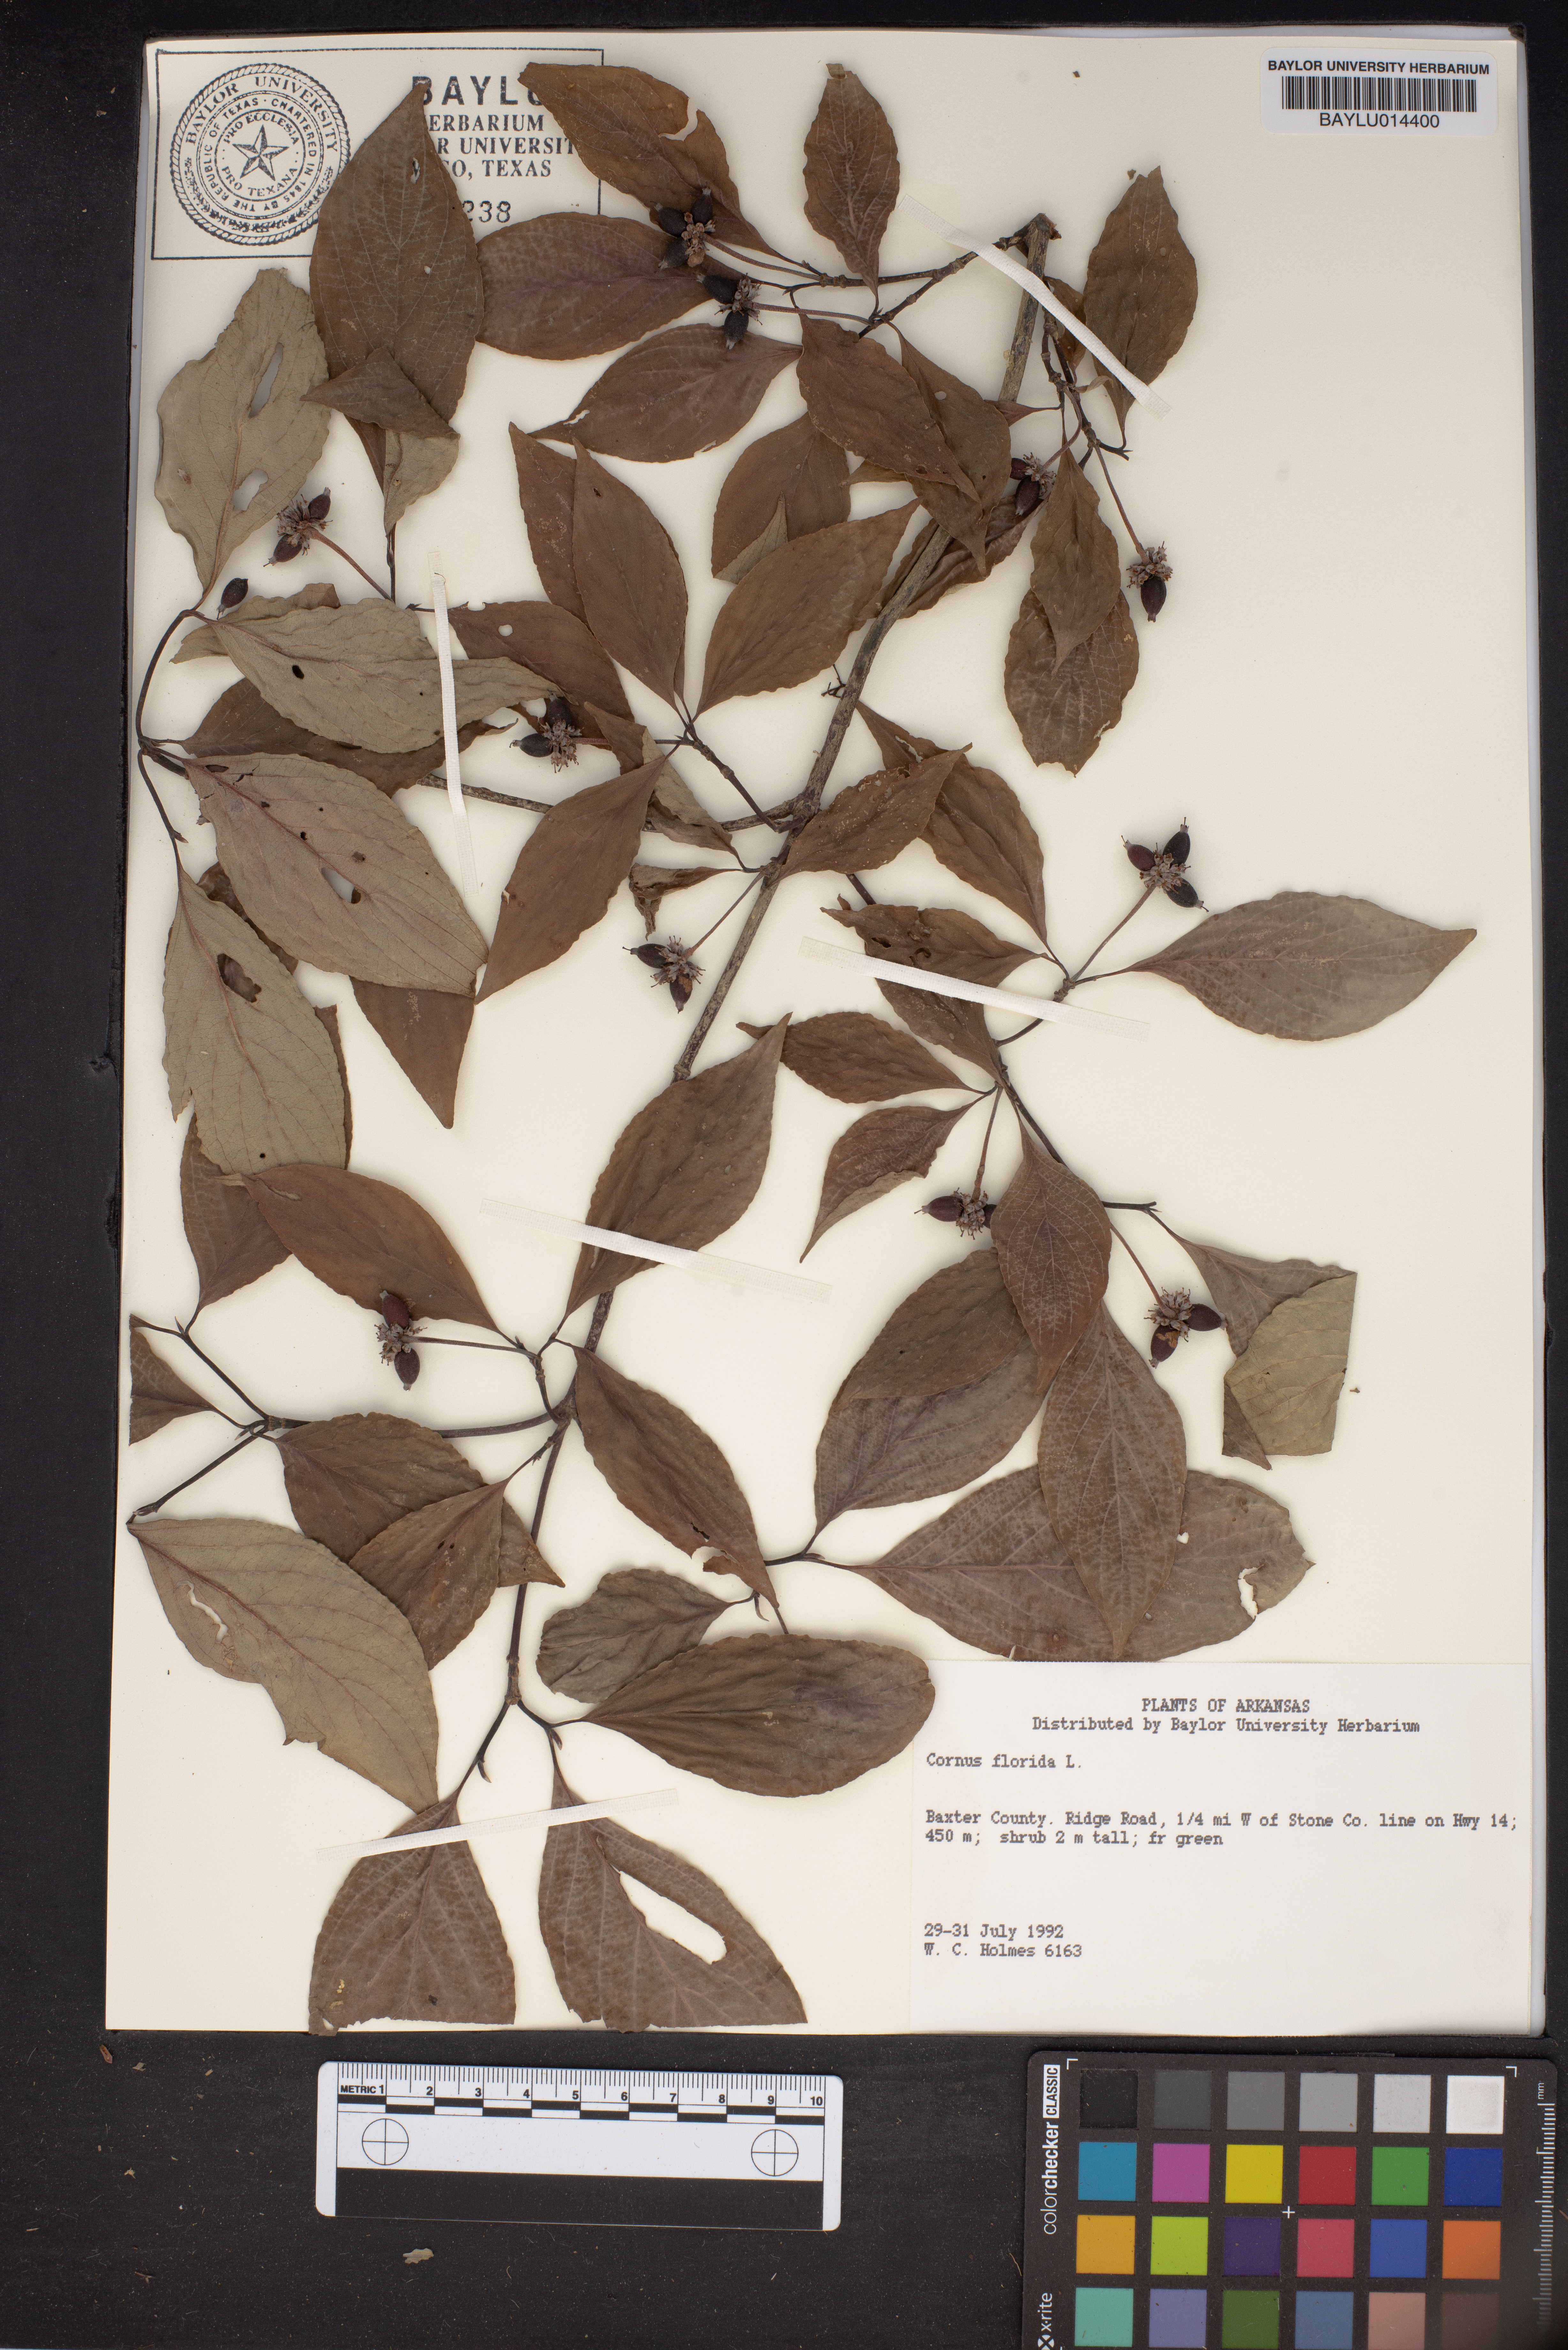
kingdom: Plantae
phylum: Tracheophyta
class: Magnoliopsida
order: Cornales
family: Cornaceae
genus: Cornus
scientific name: Cornus florida
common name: Flowering dogwood
